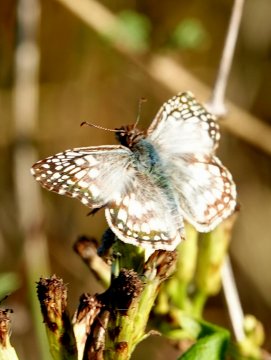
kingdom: Animalia
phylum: Arthropoda
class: Insecta
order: Lepidoptera
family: Hesperiidae
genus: Pyrgus
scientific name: Pyrgus oileus
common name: Tropical Checkered-Skipper
